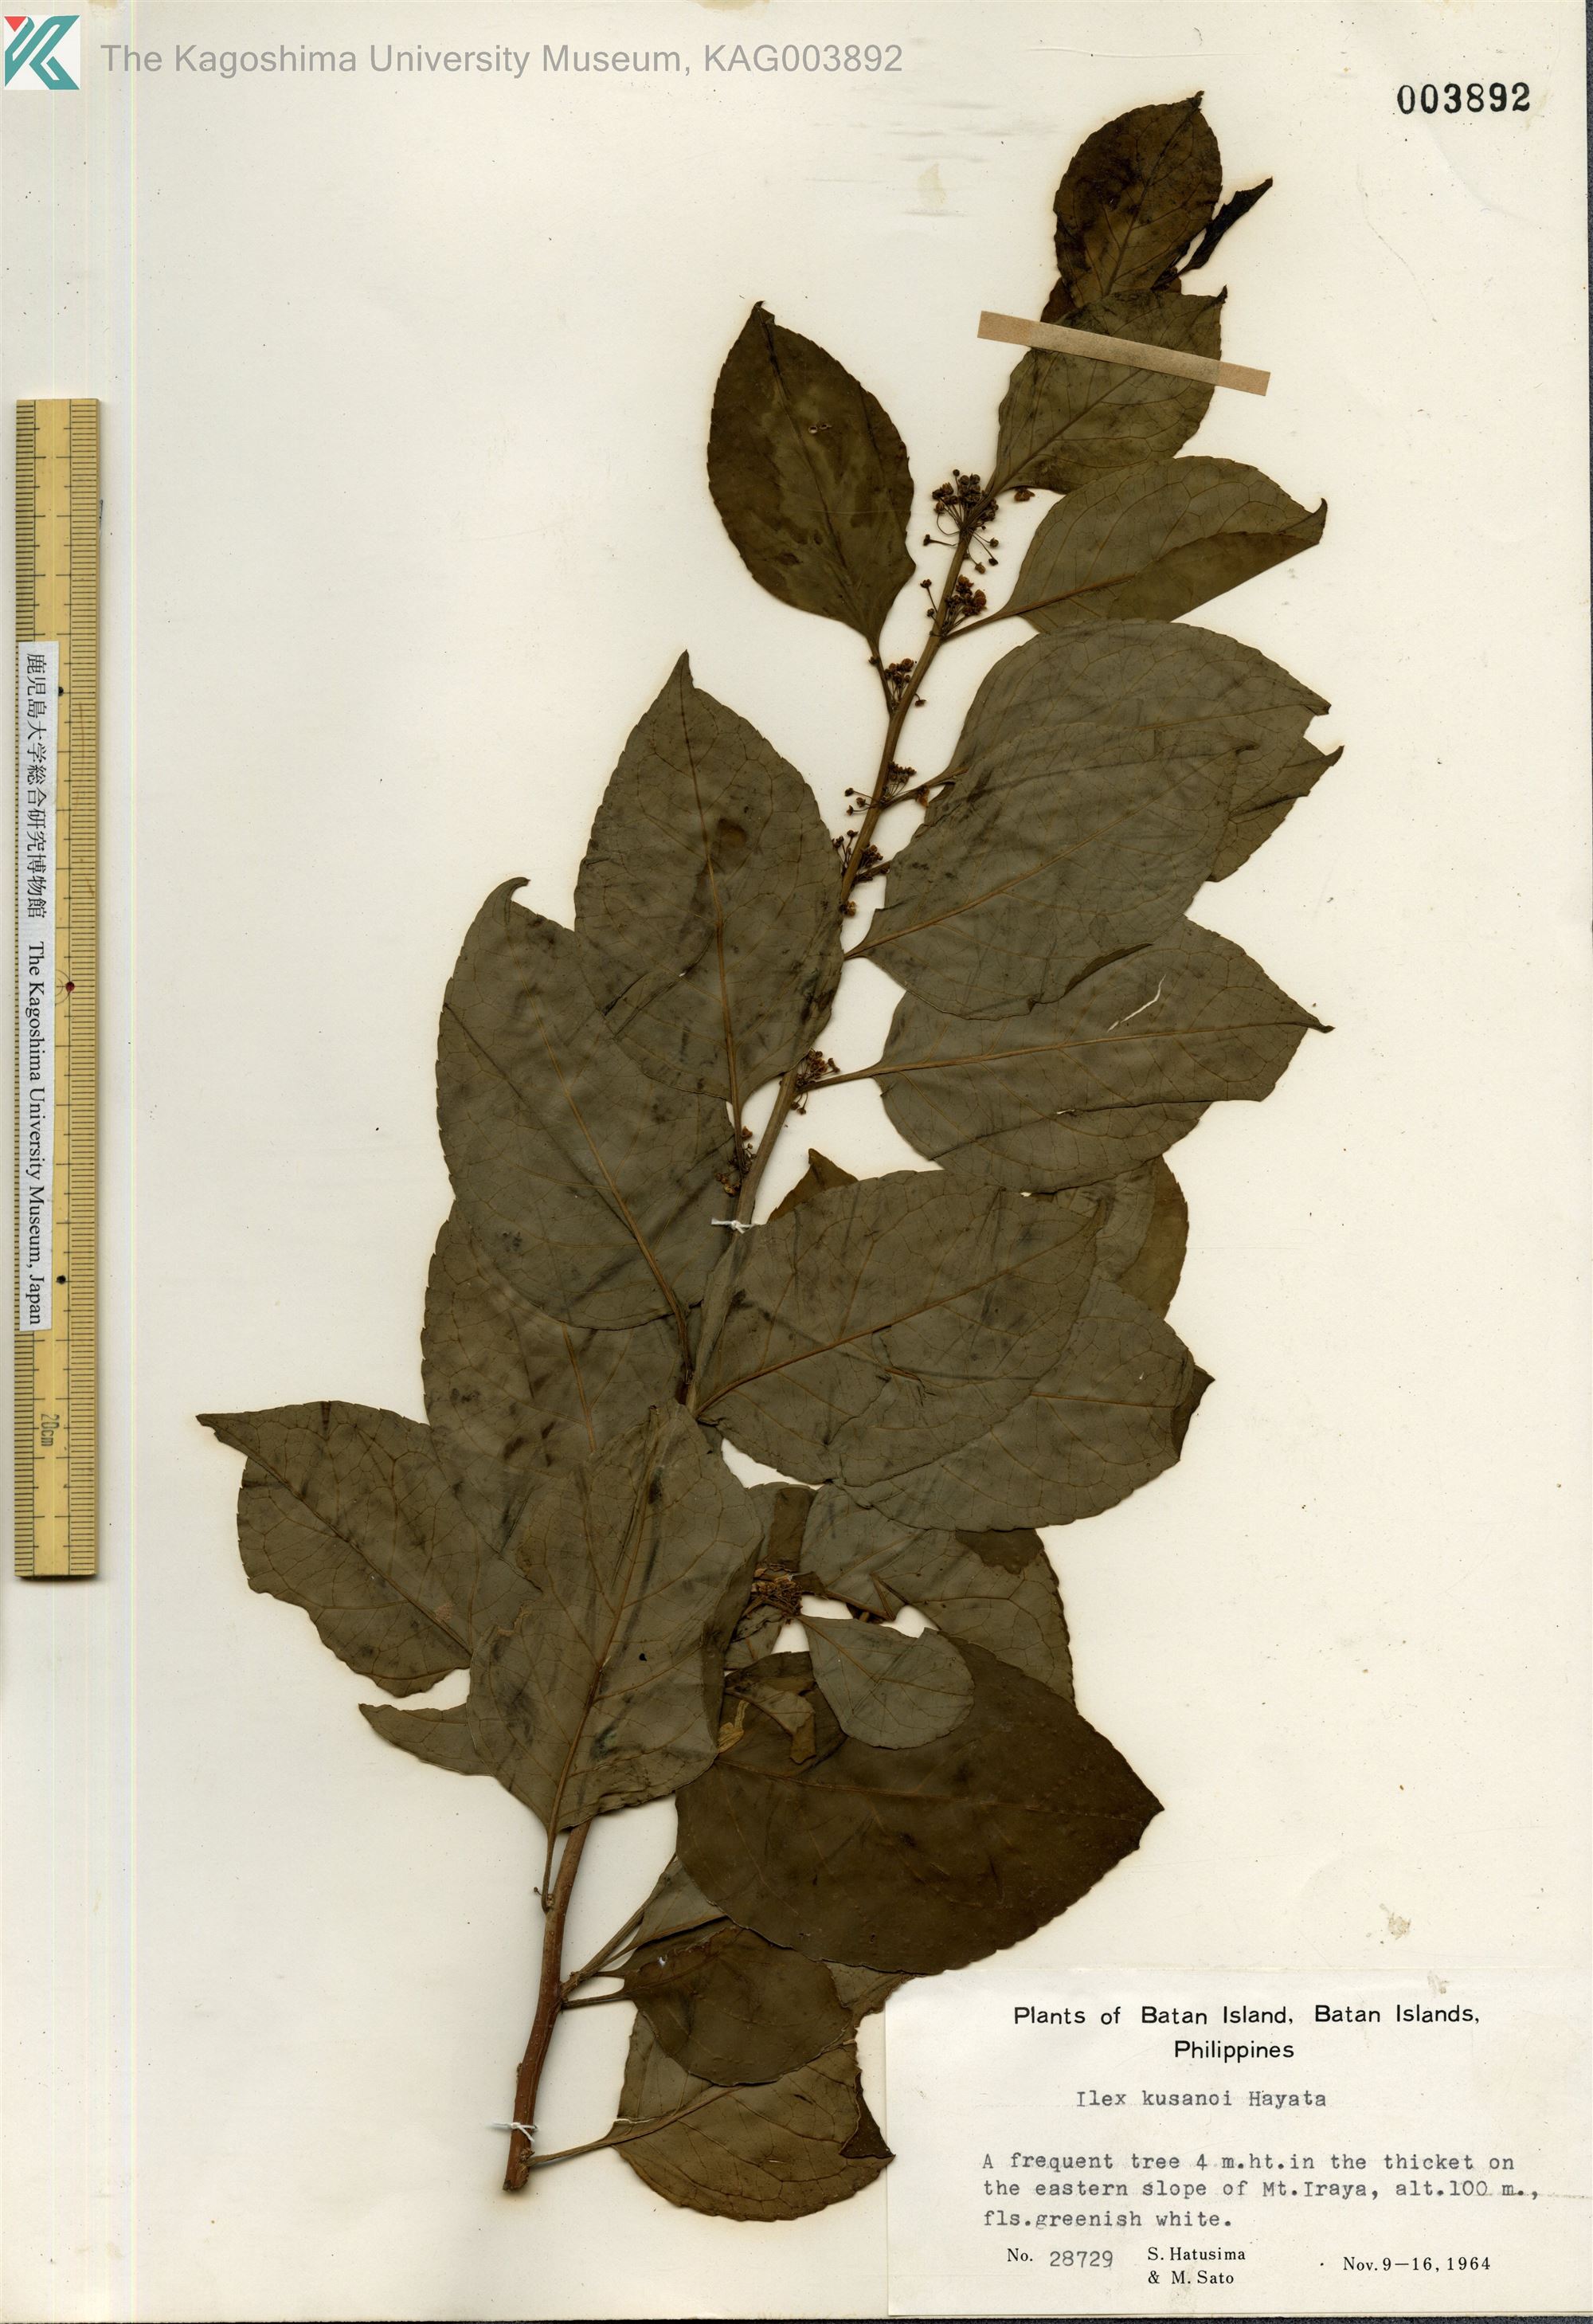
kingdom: Plantae
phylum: Tracheophyta
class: Magnoliopsida
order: Aquifoliales
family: Aquifoliaceae
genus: Ilex
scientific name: Ilex kusanoi
